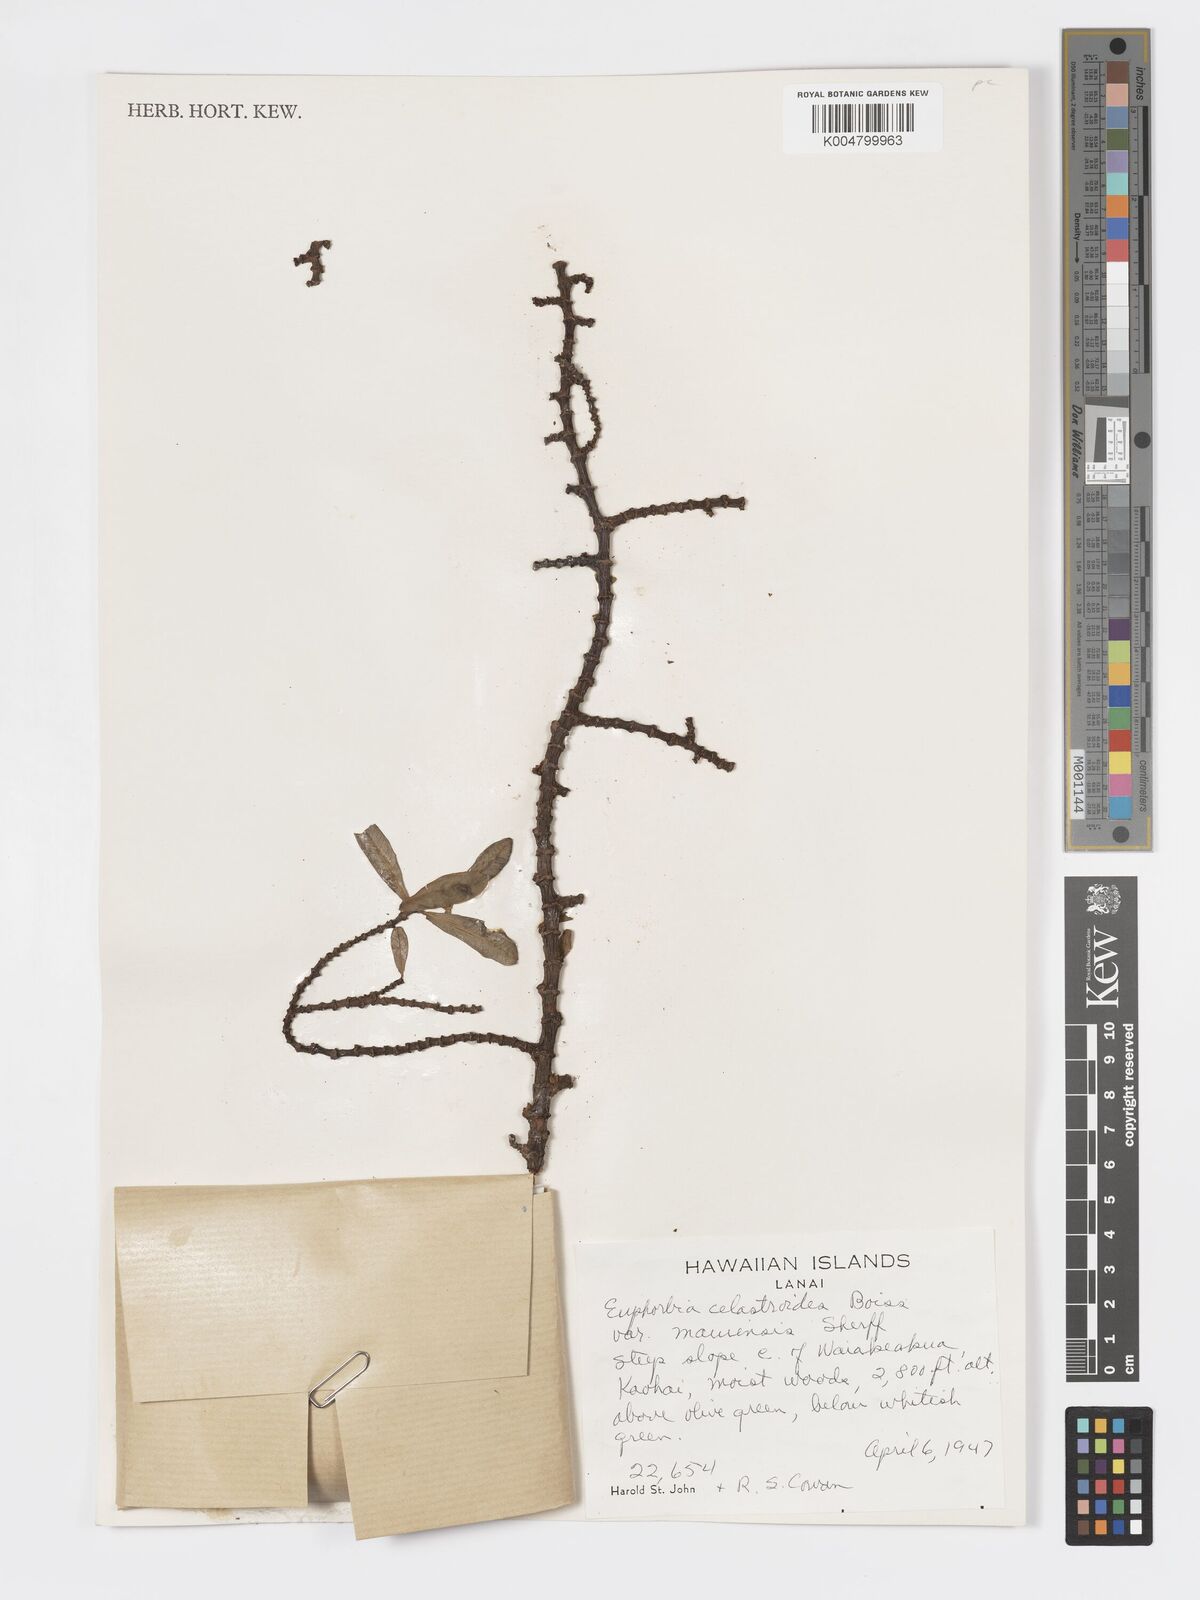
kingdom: Plantae
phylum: Tracheophyta
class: Magnoliopsida
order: Malpighiales
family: Euphorbiaceae
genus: Euphorbia
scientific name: Euphorbia celastroides
